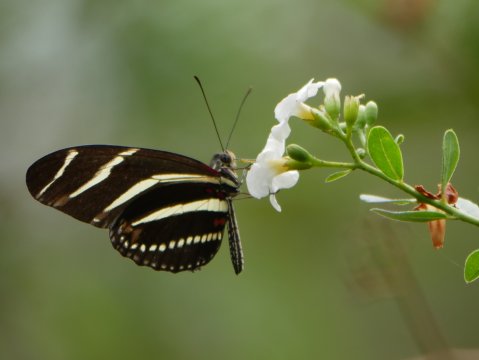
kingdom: Animalia
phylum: Arthropoda
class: Insecta
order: Lepidoptera
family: Nymphalidae
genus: Heliconius
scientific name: Heliconius charithonia
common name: Zebra Longwing
